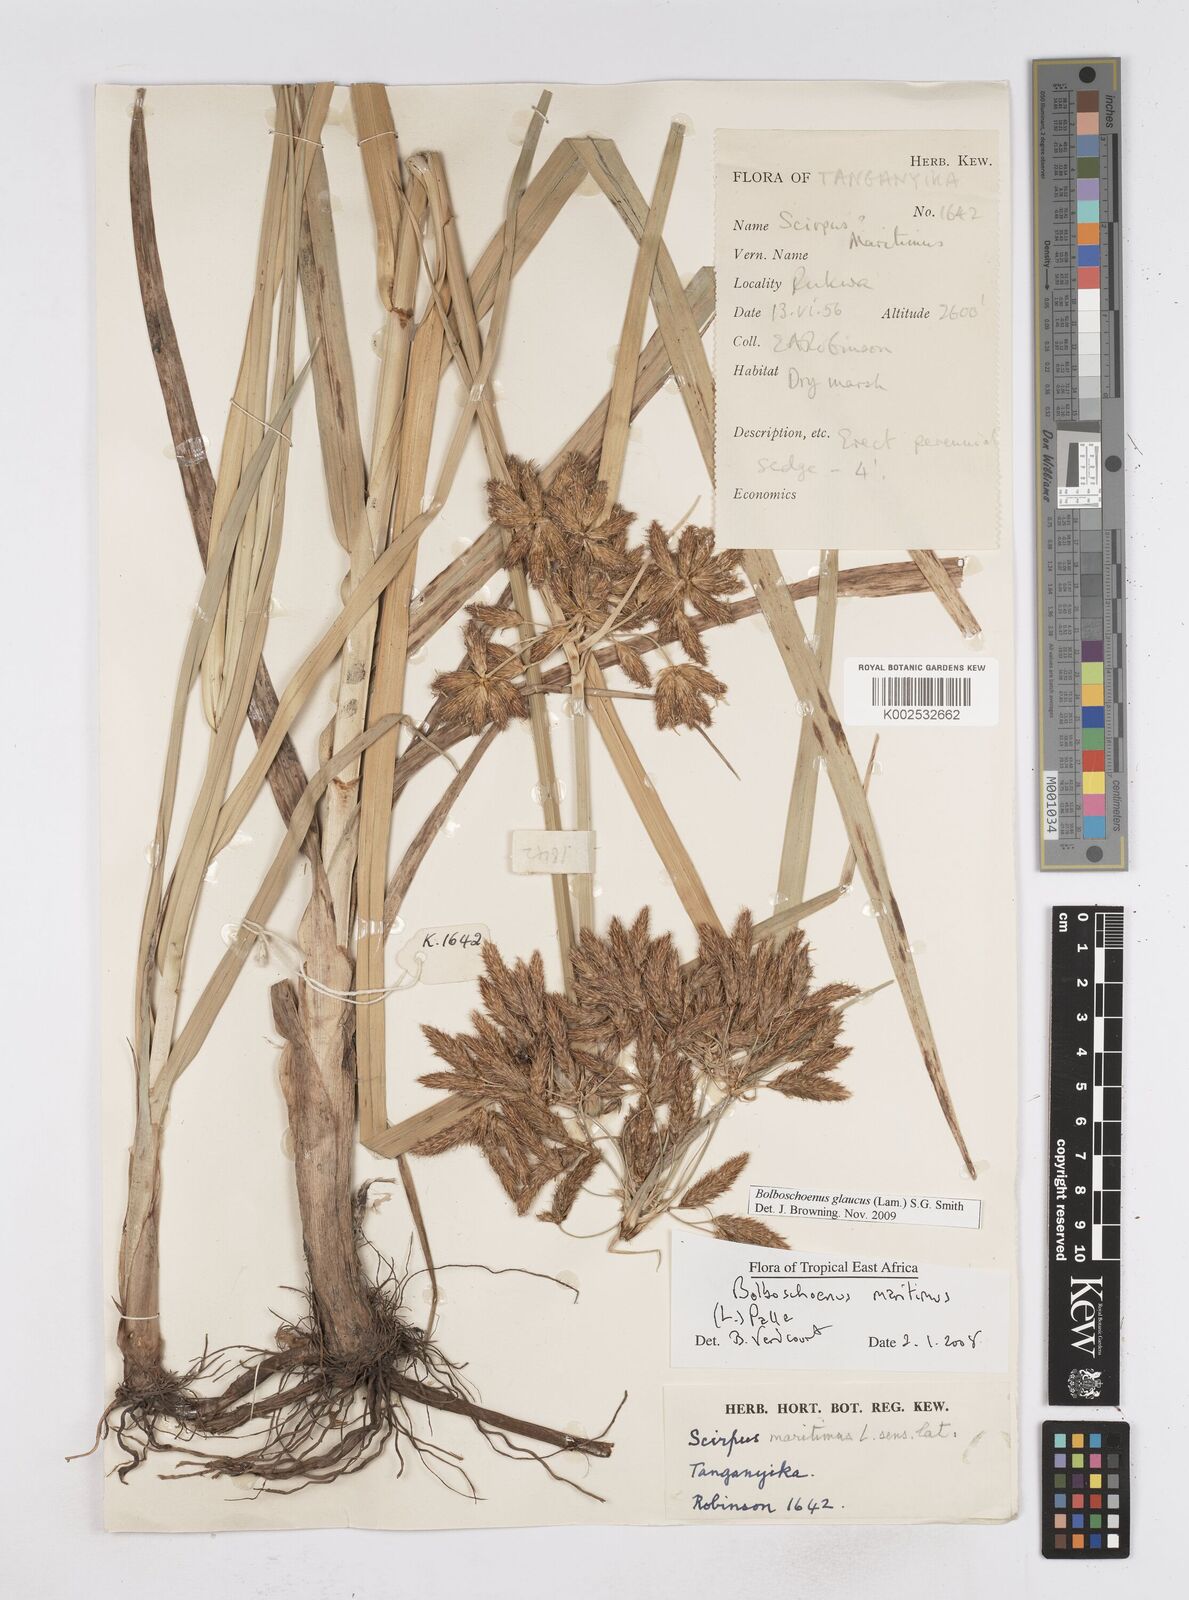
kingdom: Plantae
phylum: Tracheophyta
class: Liliopsida
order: Poales
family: Cyperaceae
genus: Bolboschoenus
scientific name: Bolboschoenus glaucus
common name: Tuberous bulrush
